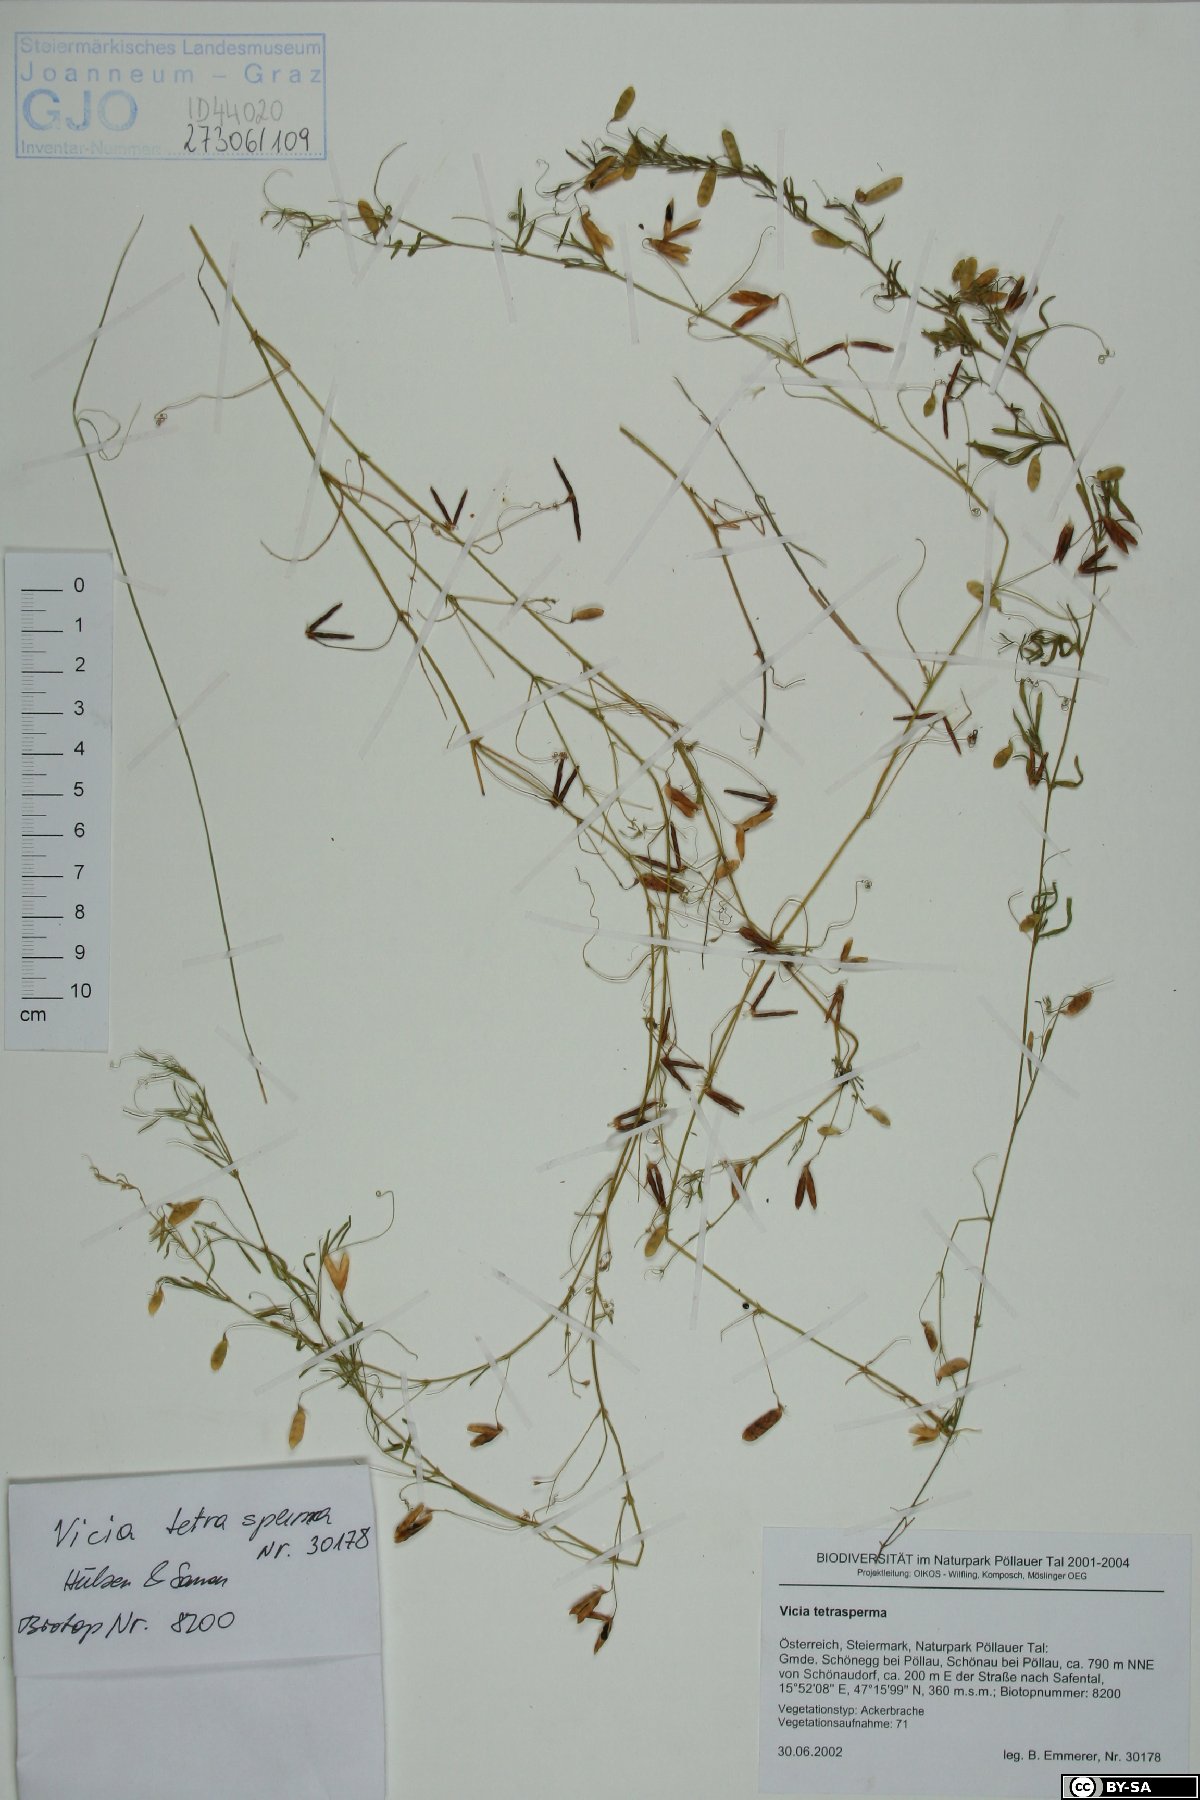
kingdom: Plantae
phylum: Tracheophyta
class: Magnoliopsida
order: Fabales
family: Fabaceae
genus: Vicia
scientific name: Vicia tetrasperma
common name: Smooth tare
